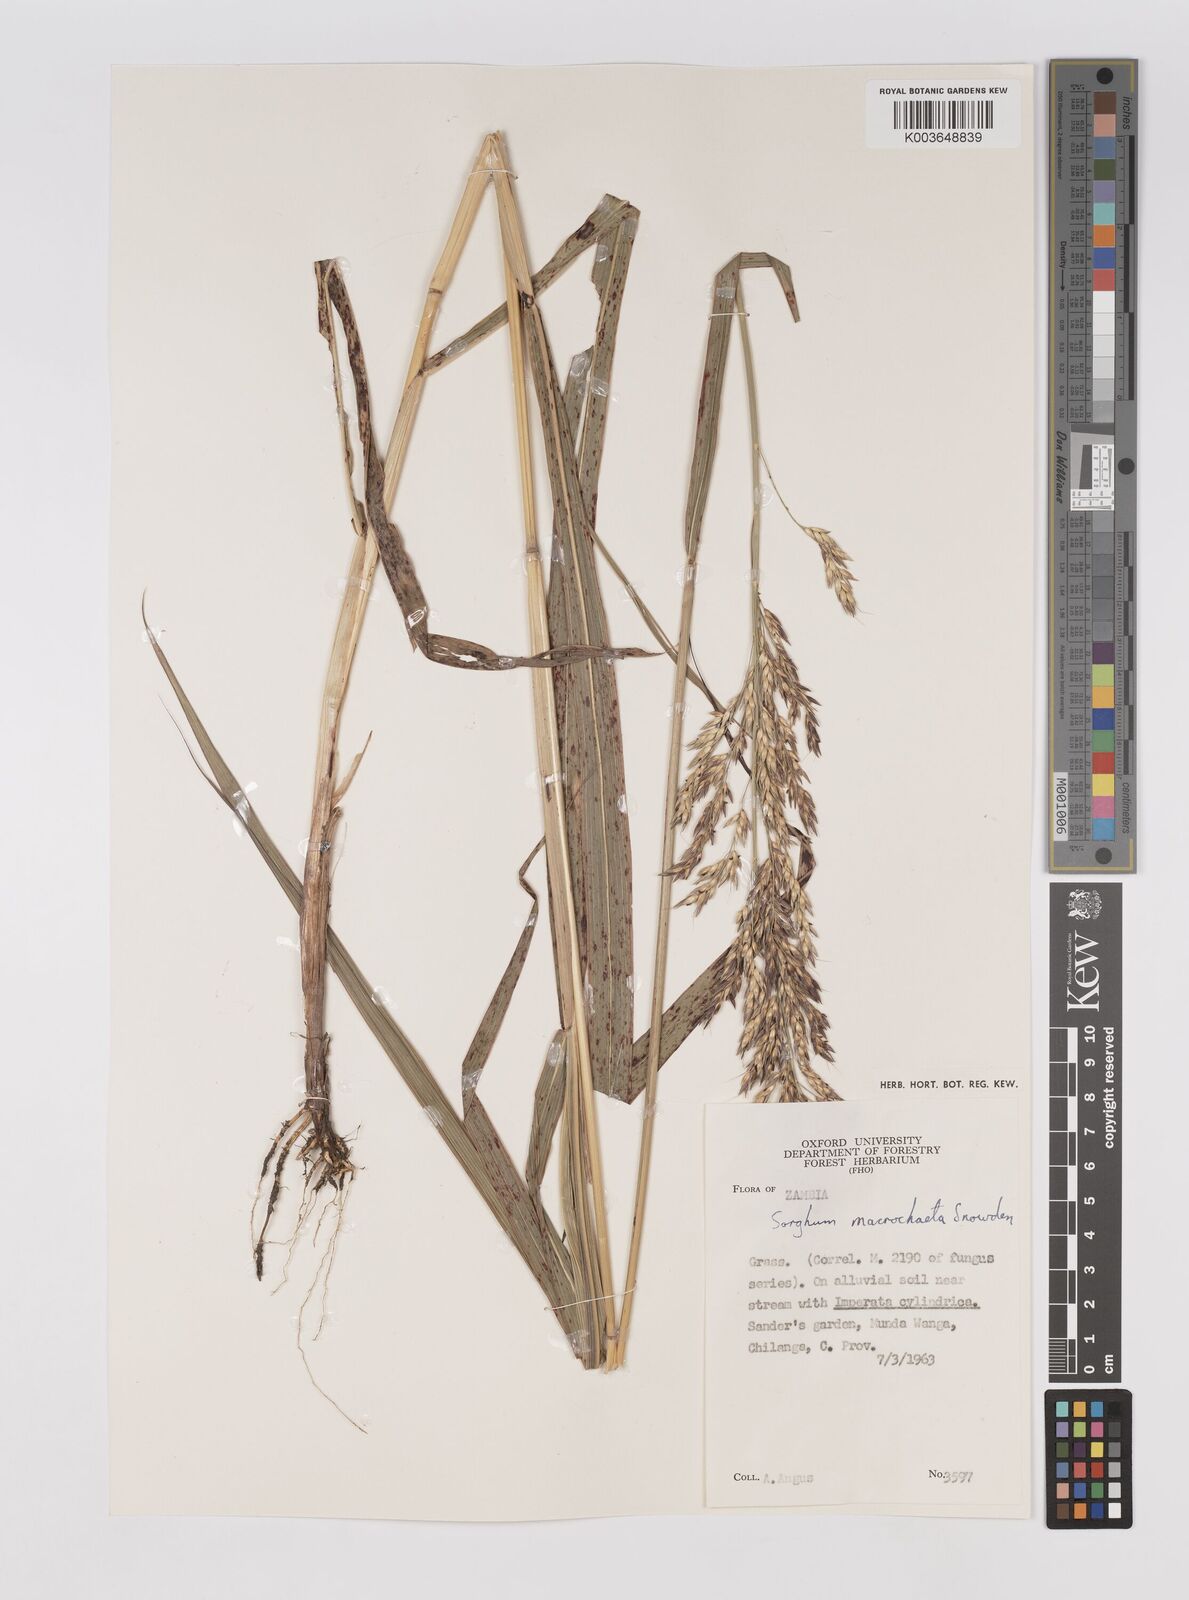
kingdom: Plantae
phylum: Tracheophyta
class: Liliopsida
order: Poales
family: Poaceae
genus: Sorghum
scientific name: Sorghum arundinaceum
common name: Sorghum
